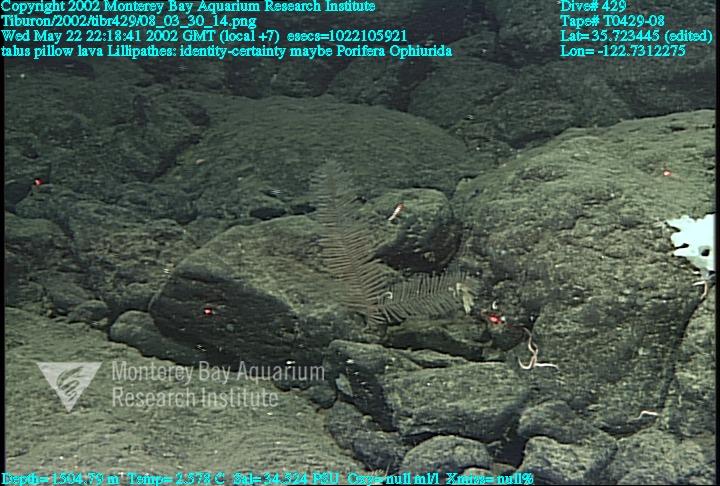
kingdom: Animalia
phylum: Porifera
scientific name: Porifera
